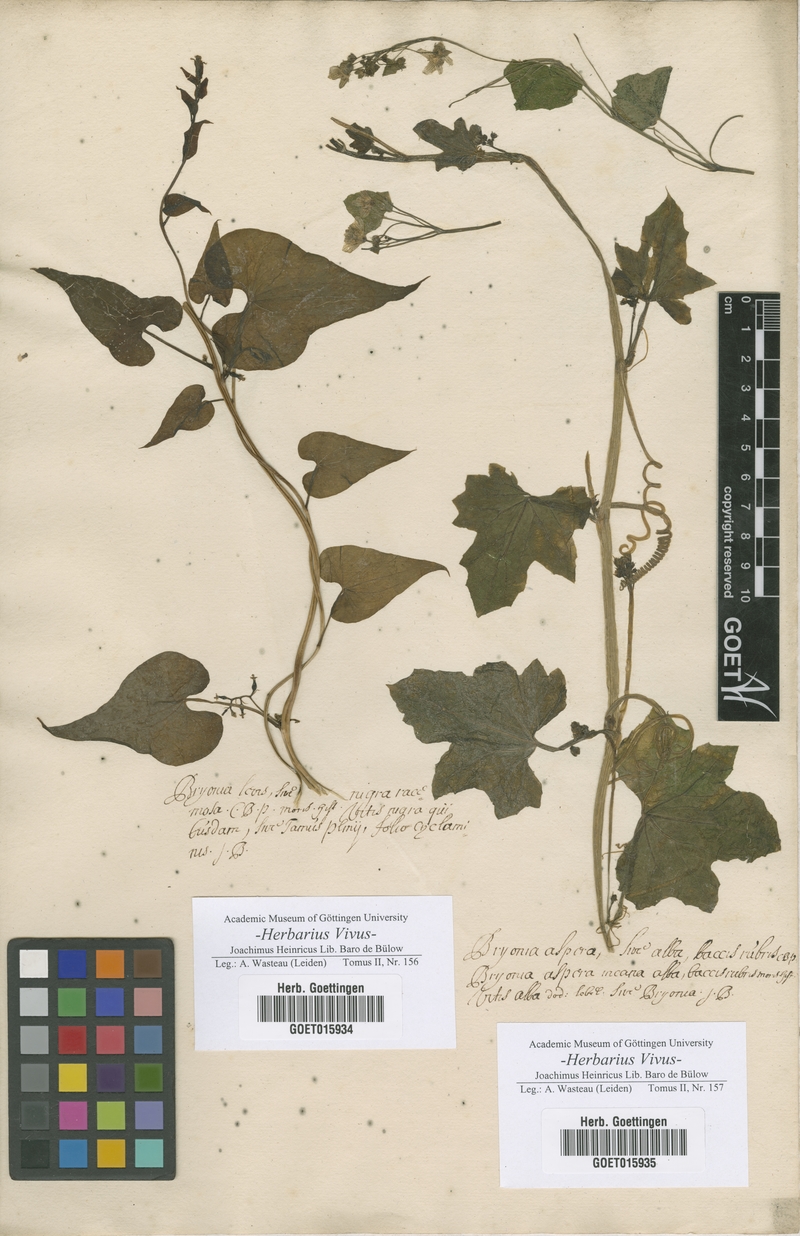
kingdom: Plantae
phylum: Tracheophyta
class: Magnoliopsida
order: Cucurbitales
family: Cucurbitaceae
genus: Bryonia
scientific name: Bryonia
